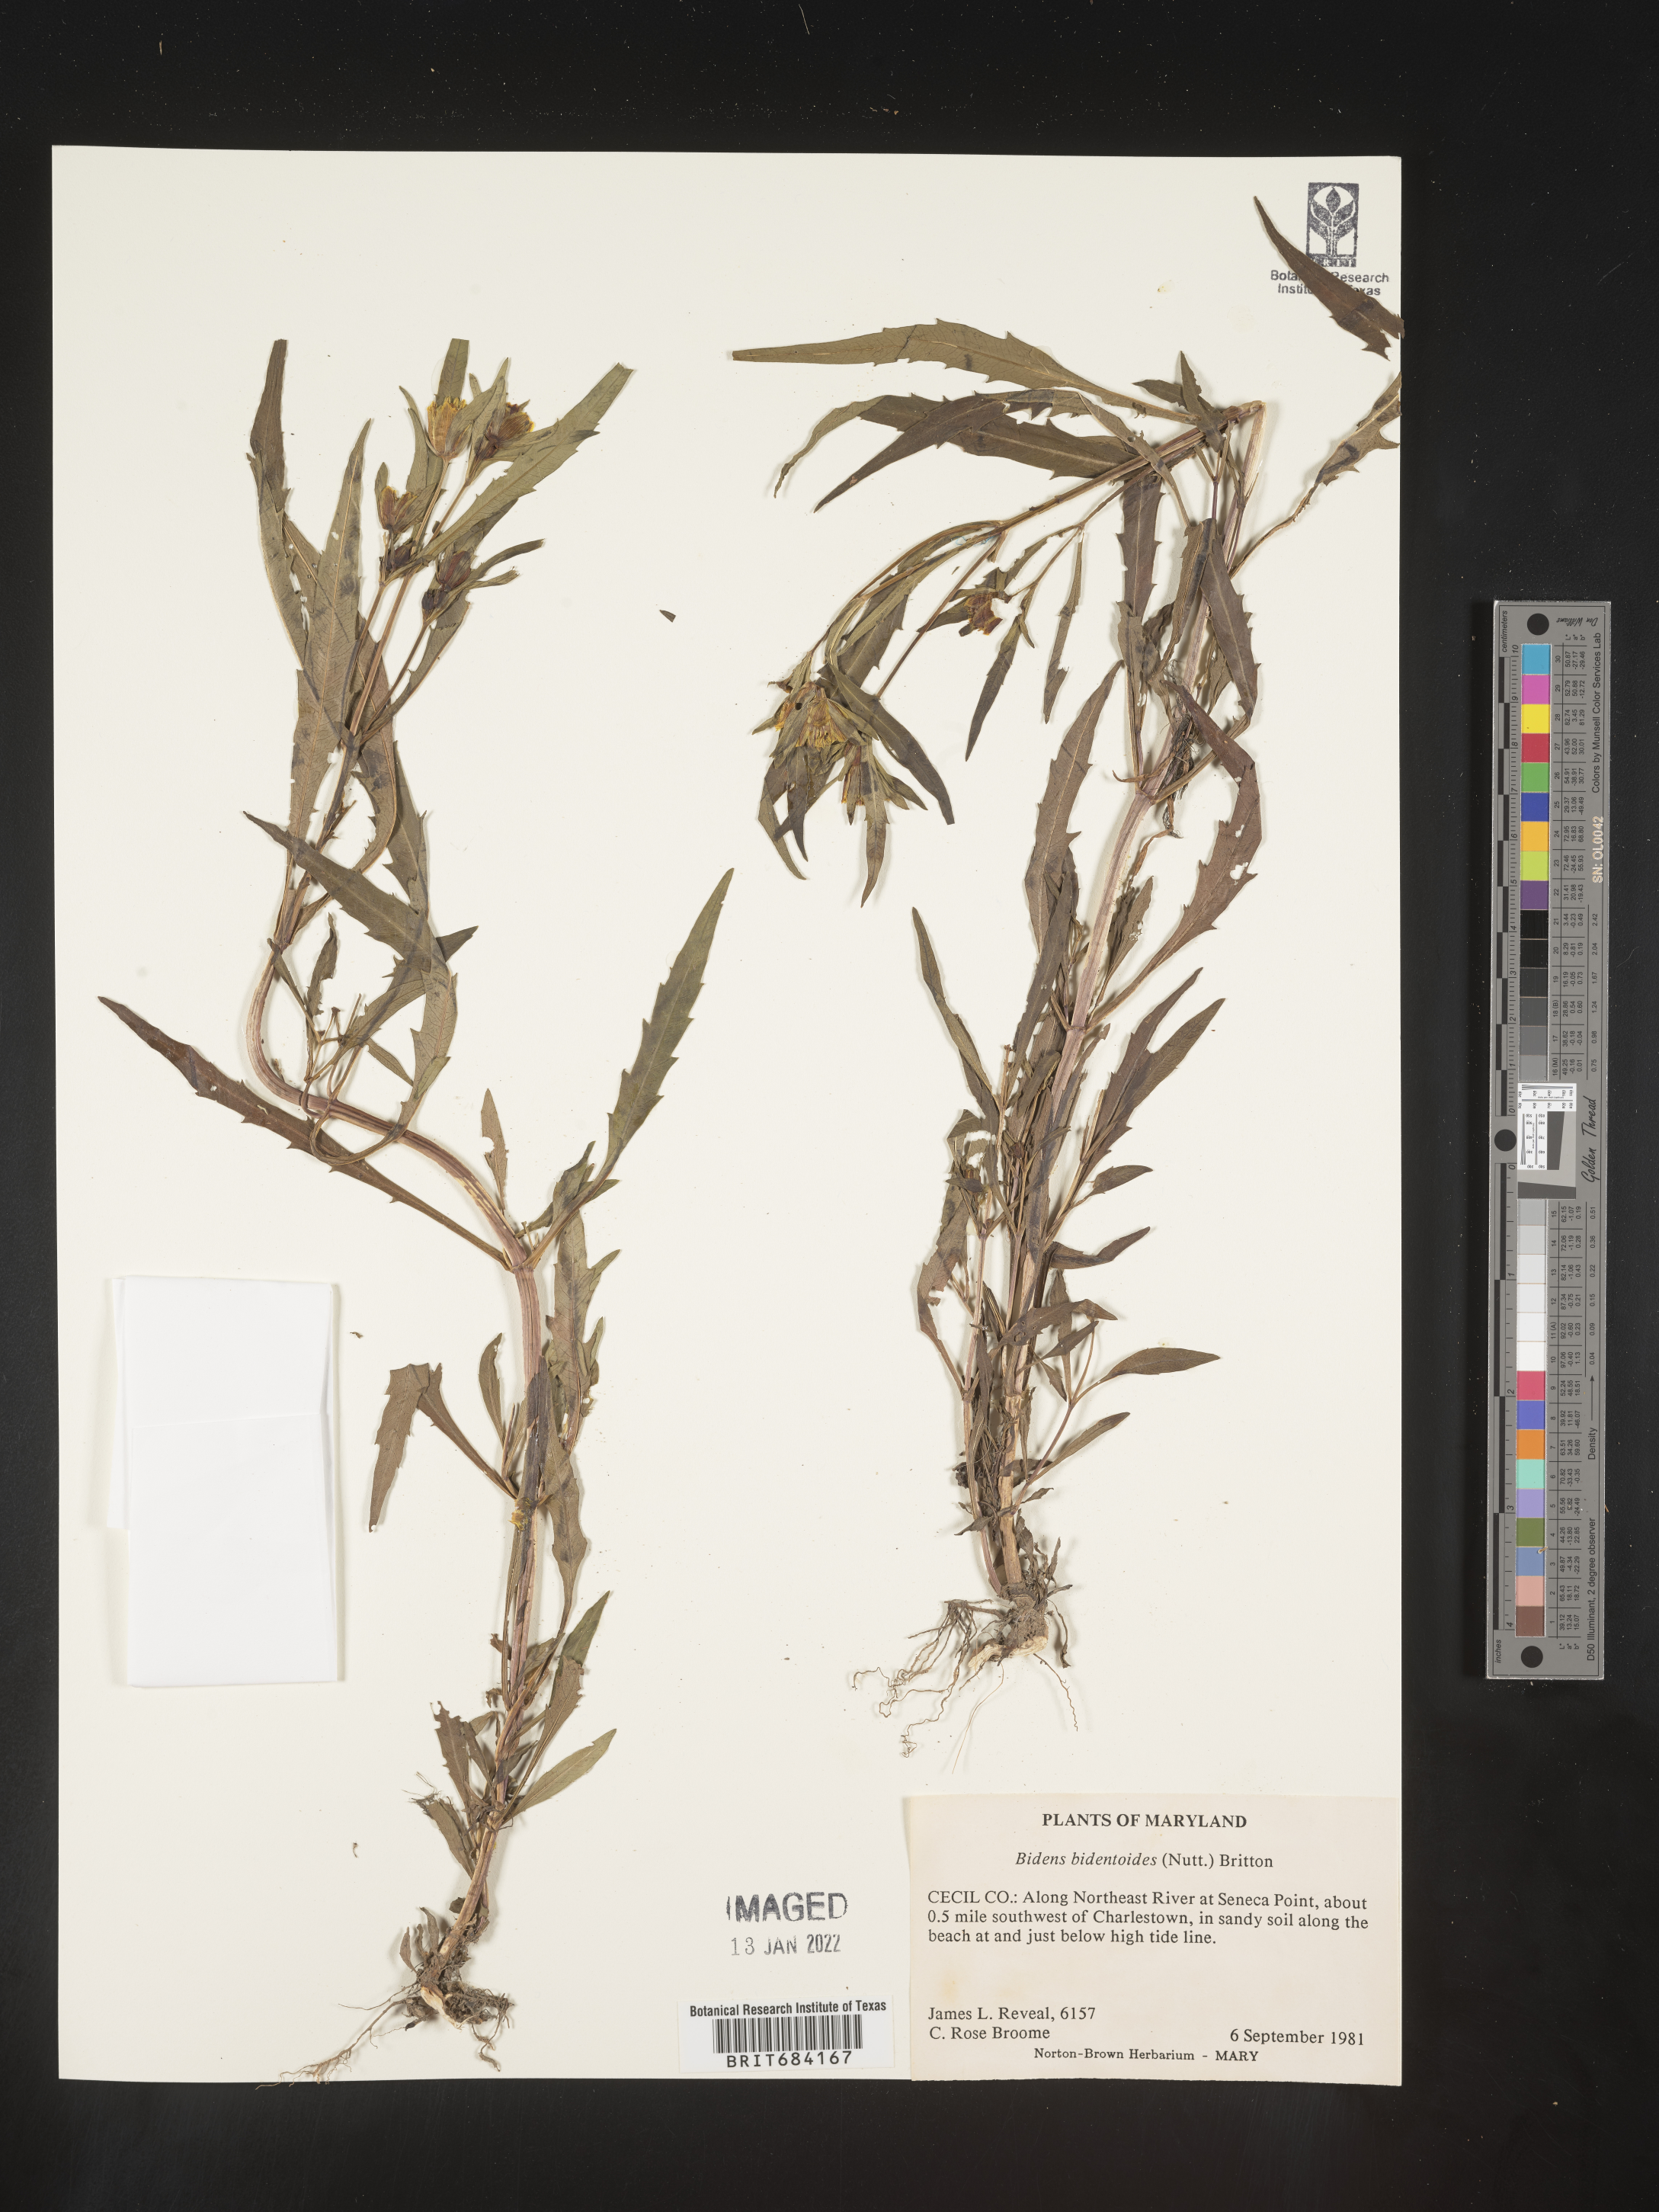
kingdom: Plantae
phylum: Tracheophyta
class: Magnoliopsida
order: Asterales
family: Asteraceae
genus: Bidens
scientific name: Bidens bidentoides
